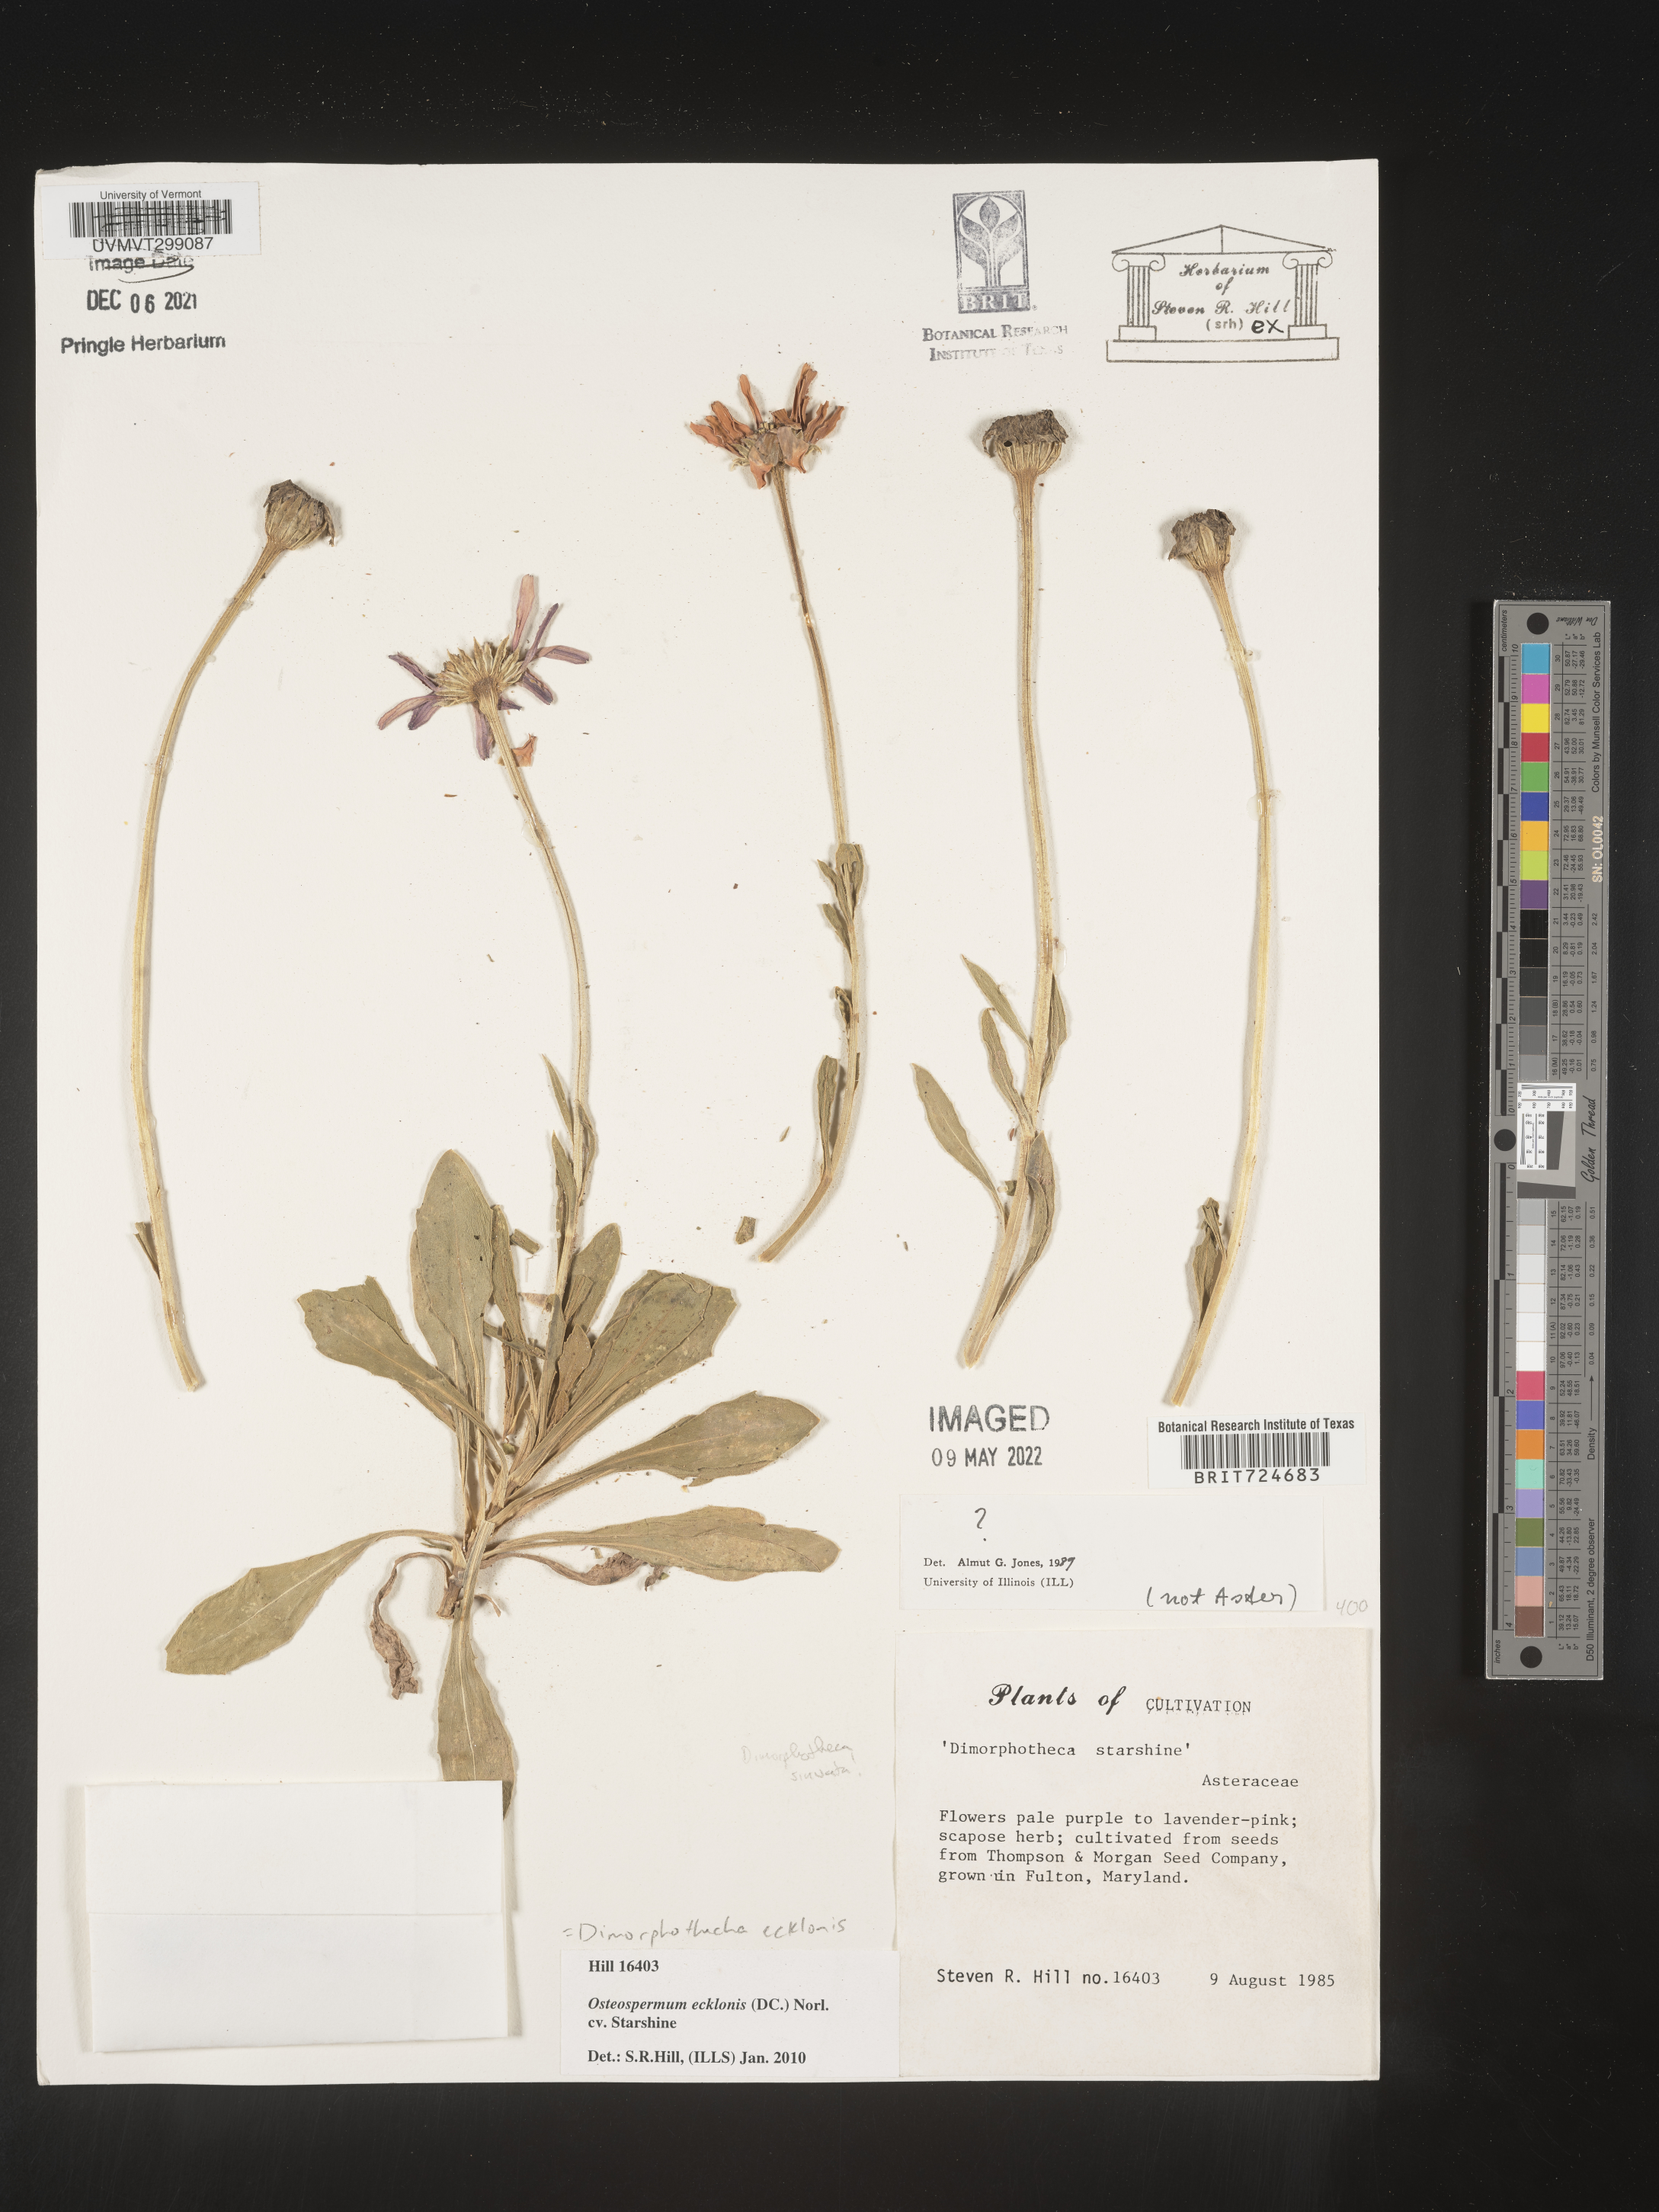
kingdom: Plantae
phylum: Tracheophyta
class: Magnoliopsida
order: Asterales
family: Asteraceae
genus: Dimorphotheca
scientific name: Dimorphotheca ecklonis
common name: Vanstaden's river daisy
